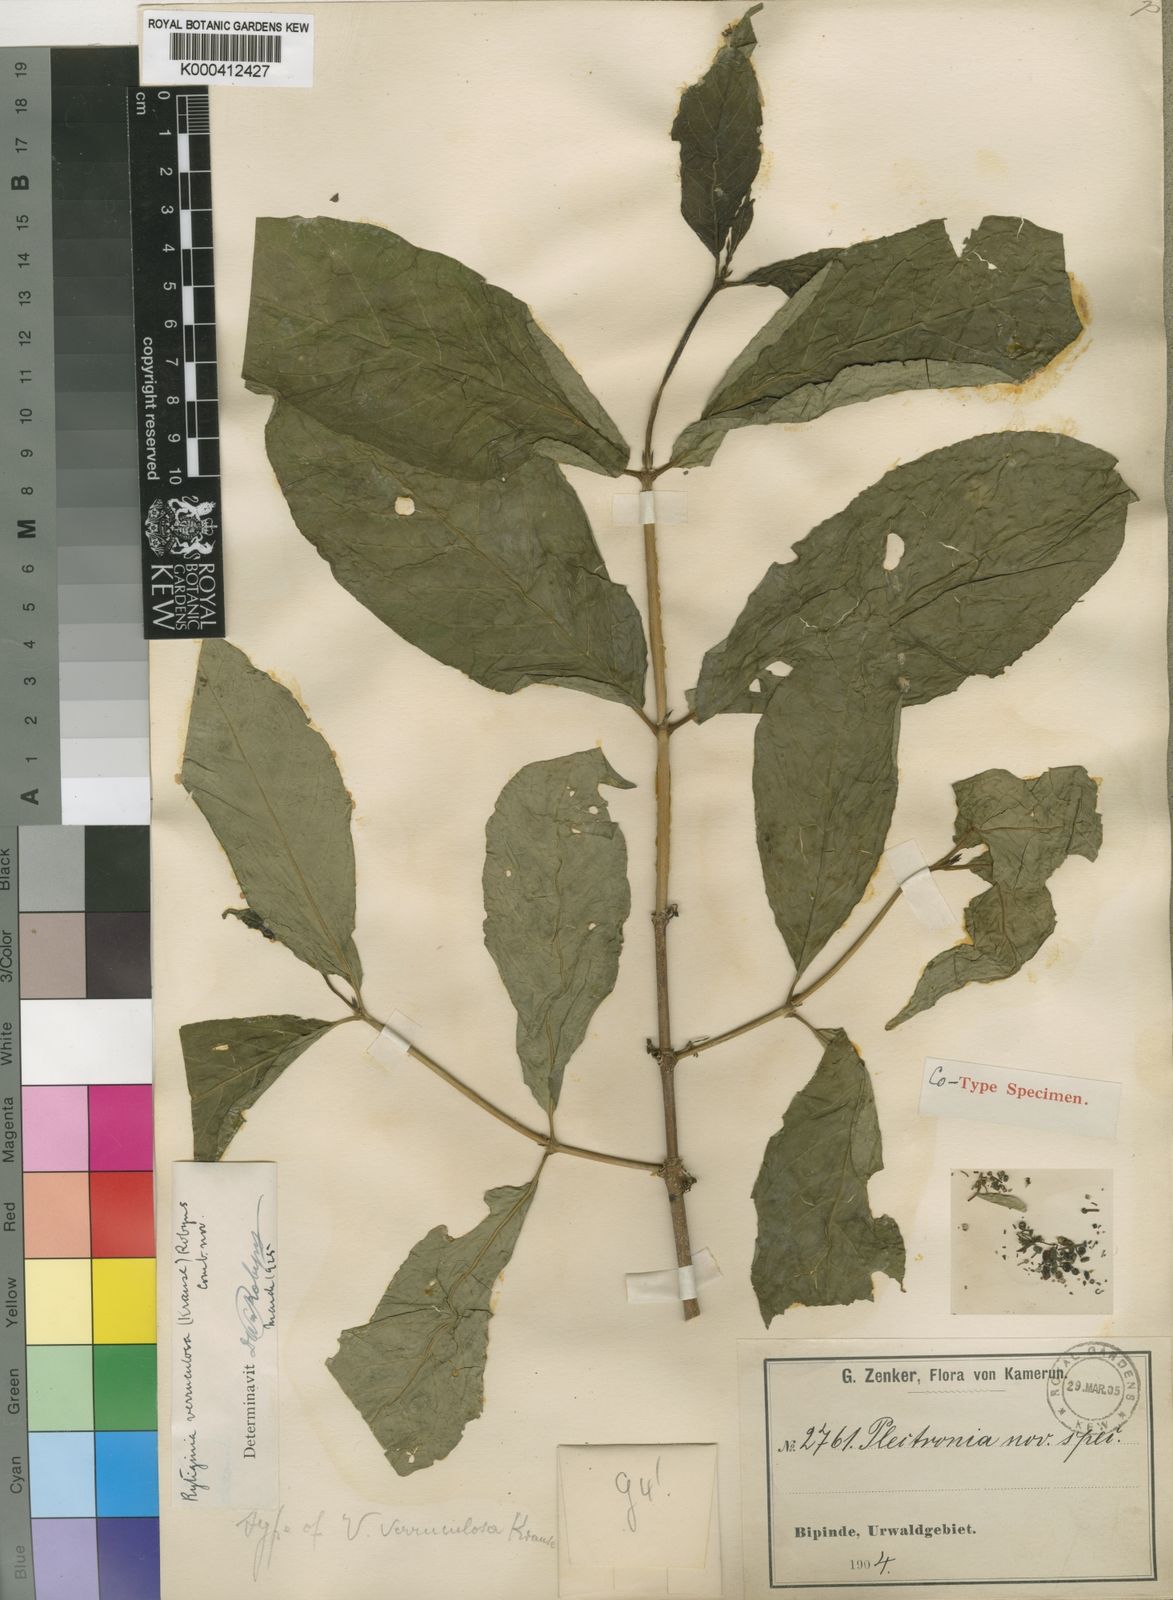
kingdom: Plantae
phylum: Tracheophyta
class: Magnoliopsida
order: Gentianales
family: Rubiaceae
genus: Rytigynia
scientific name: Rytigynia verruculosa
